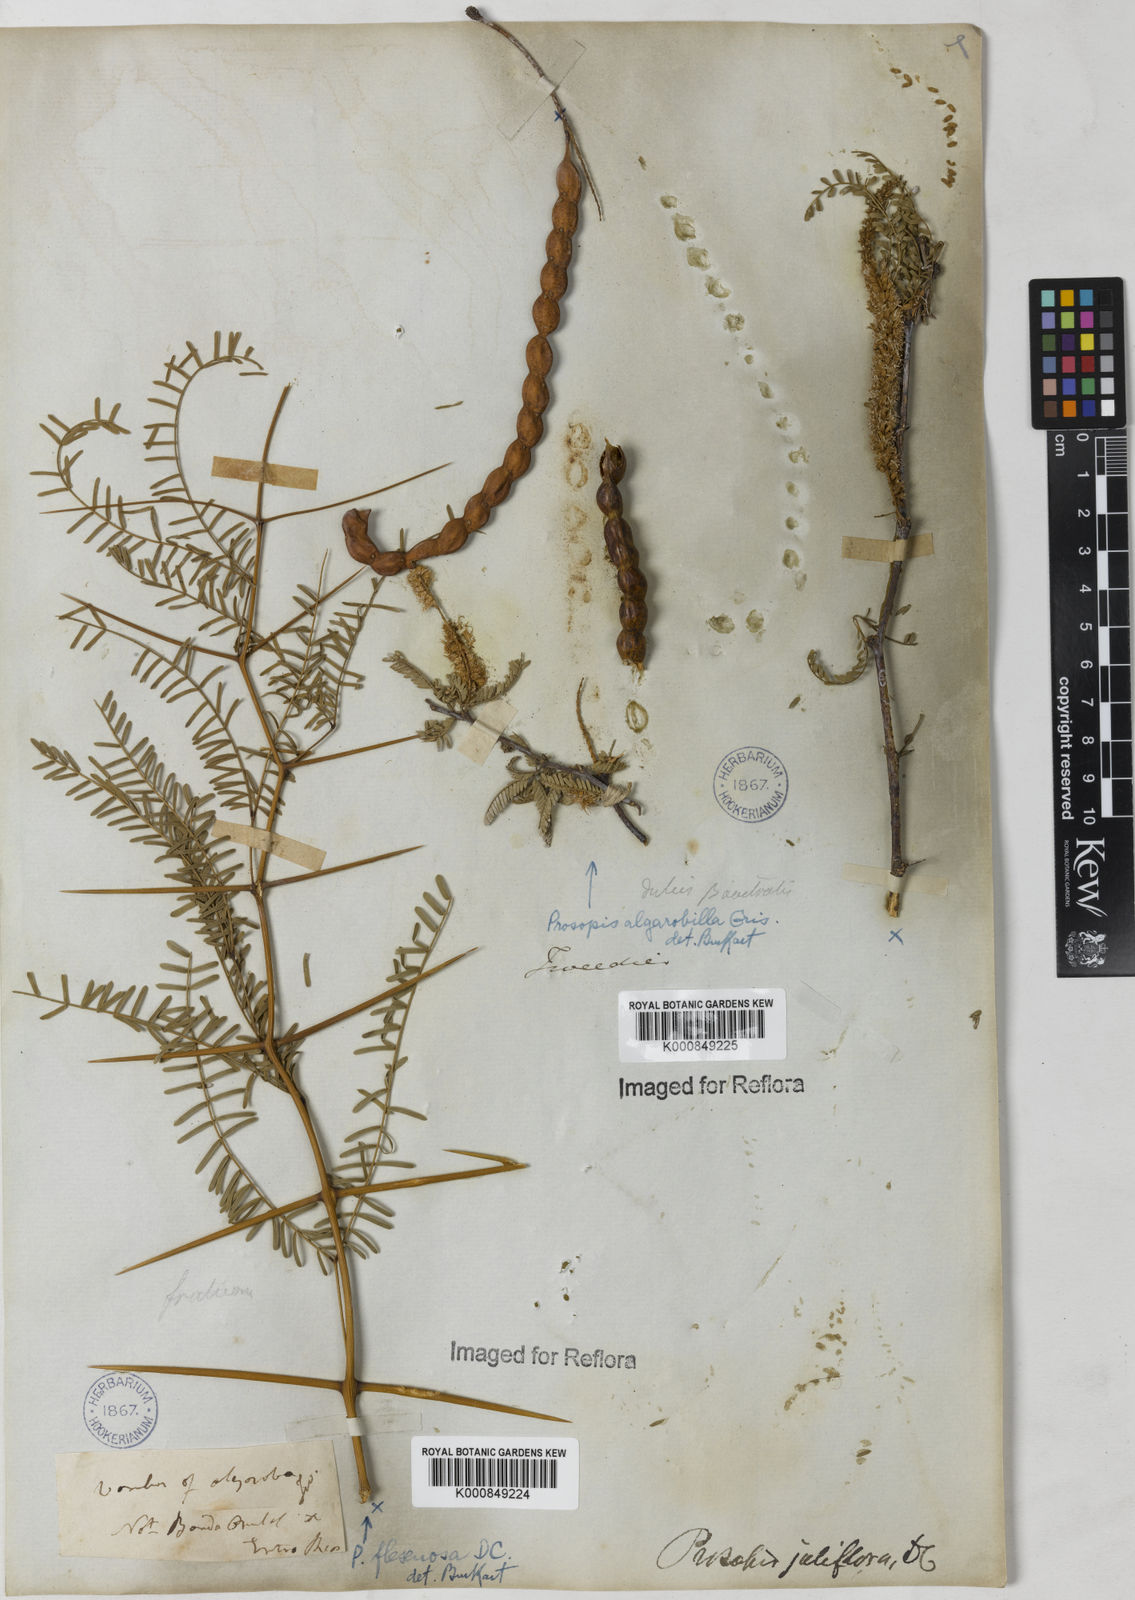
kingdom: Plantae
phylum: Tracheophyta
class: Magnoliopsida
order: Fabales
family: Fabaceae
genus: Prosopis
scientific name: Prosopis juliflora
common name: Mesquite
